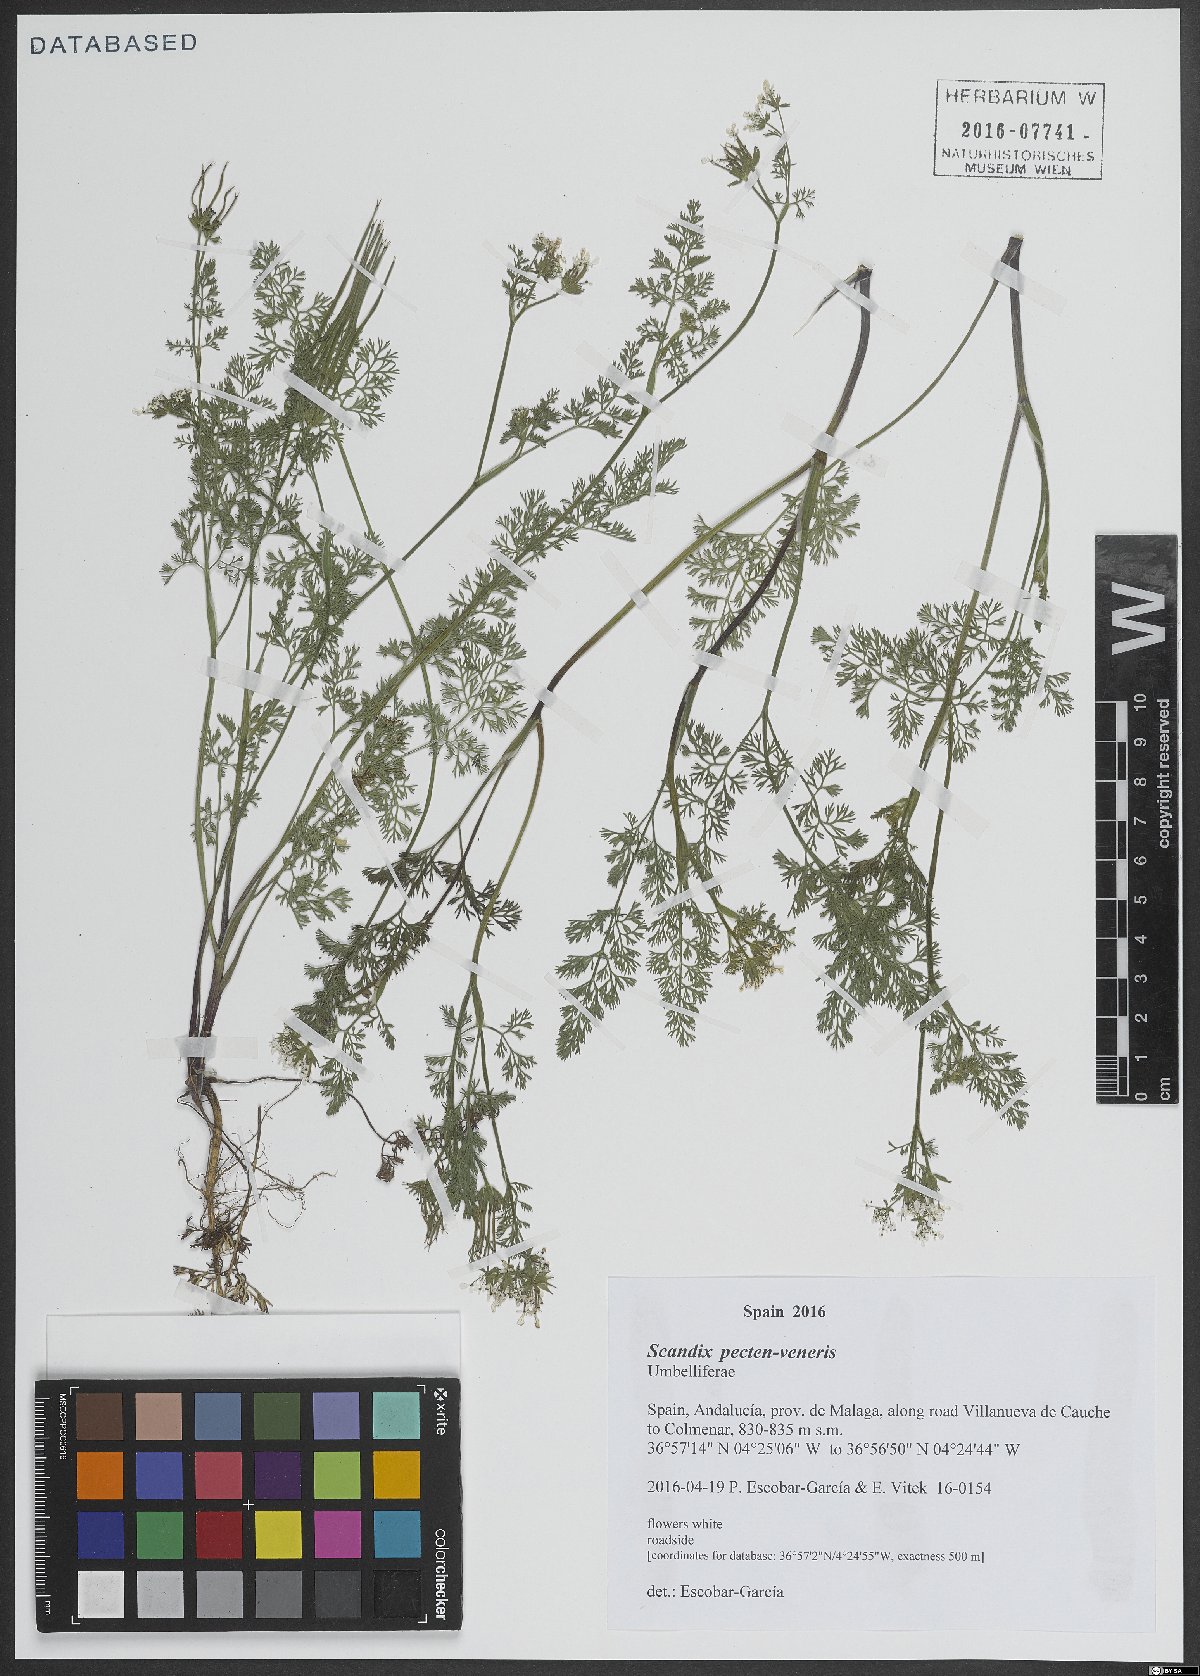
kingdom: Plantae
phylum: Tracheophyta
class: Magnoliopsida
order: Apiales
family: Apiaceae
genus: Scandix
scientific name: Scandix pecten-veneris
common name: Shepherd's-needle
